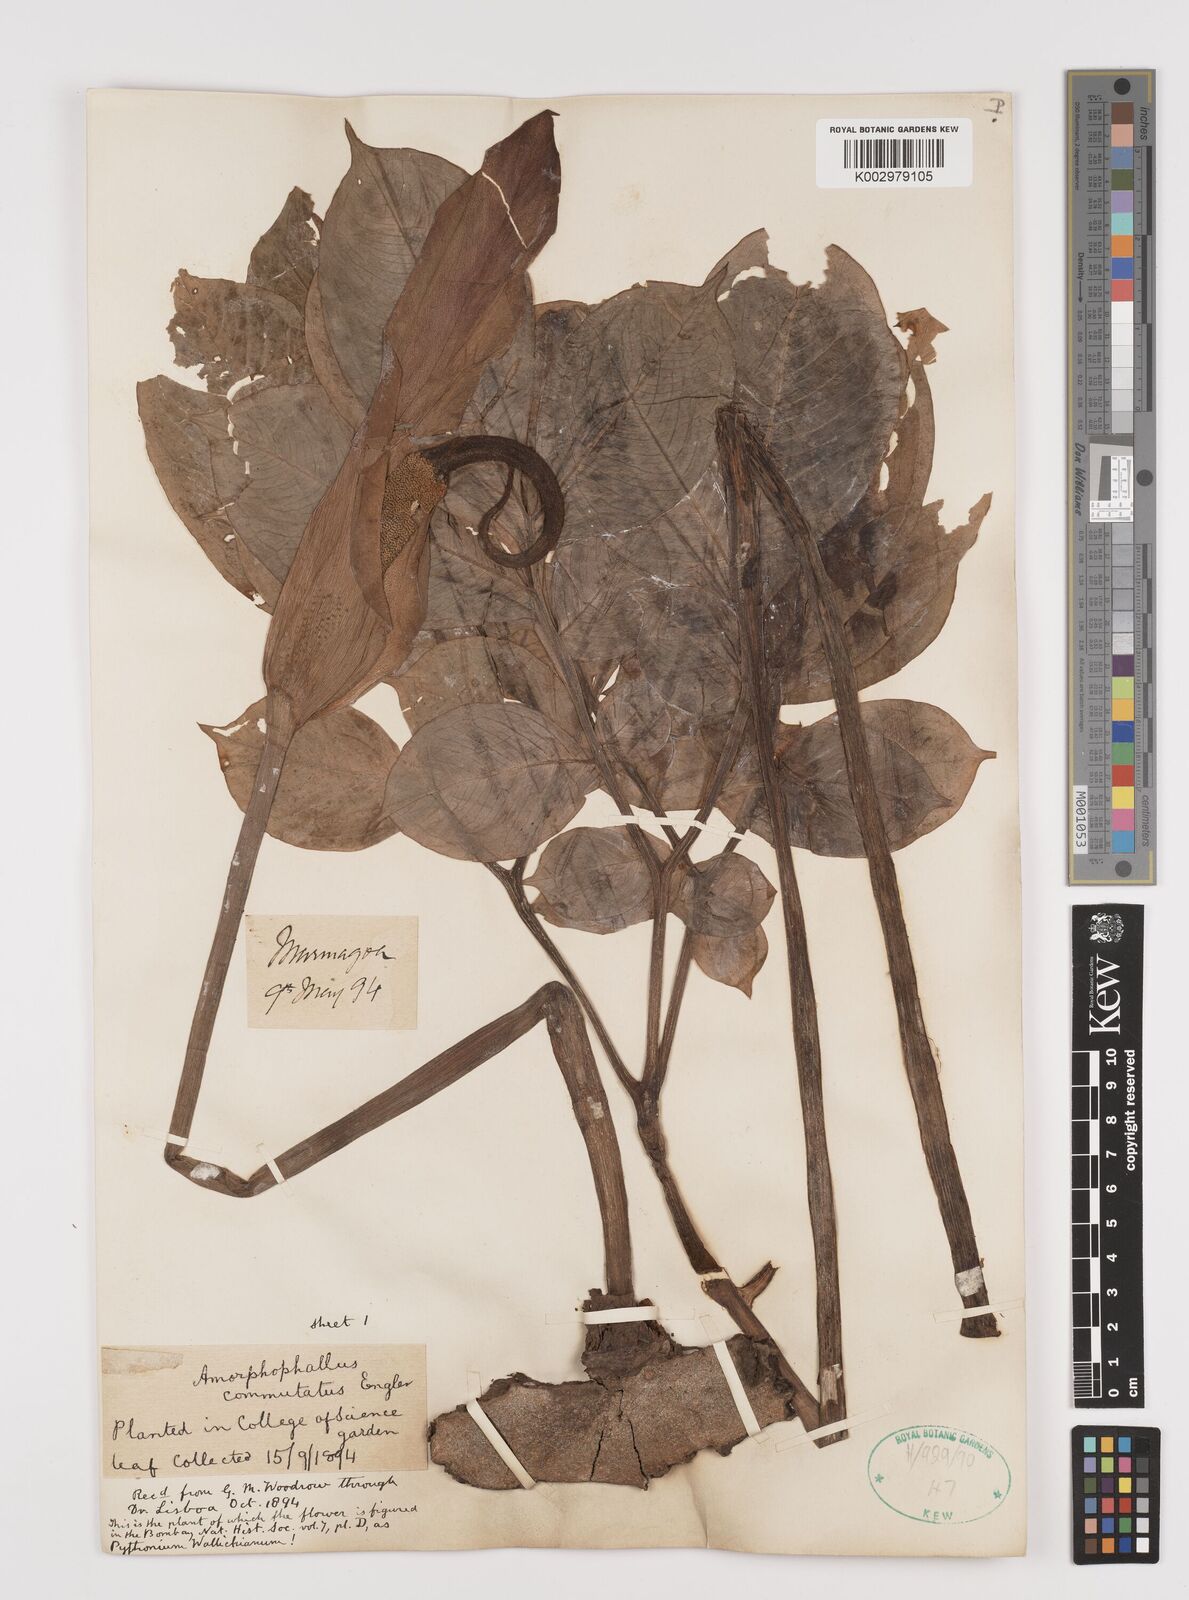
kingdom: Plantae
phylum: Tracheophyta
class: Liliopsida
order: Alismatales
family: Araceae
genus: Amorphophallus
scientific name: Amorphophallus commutatus
